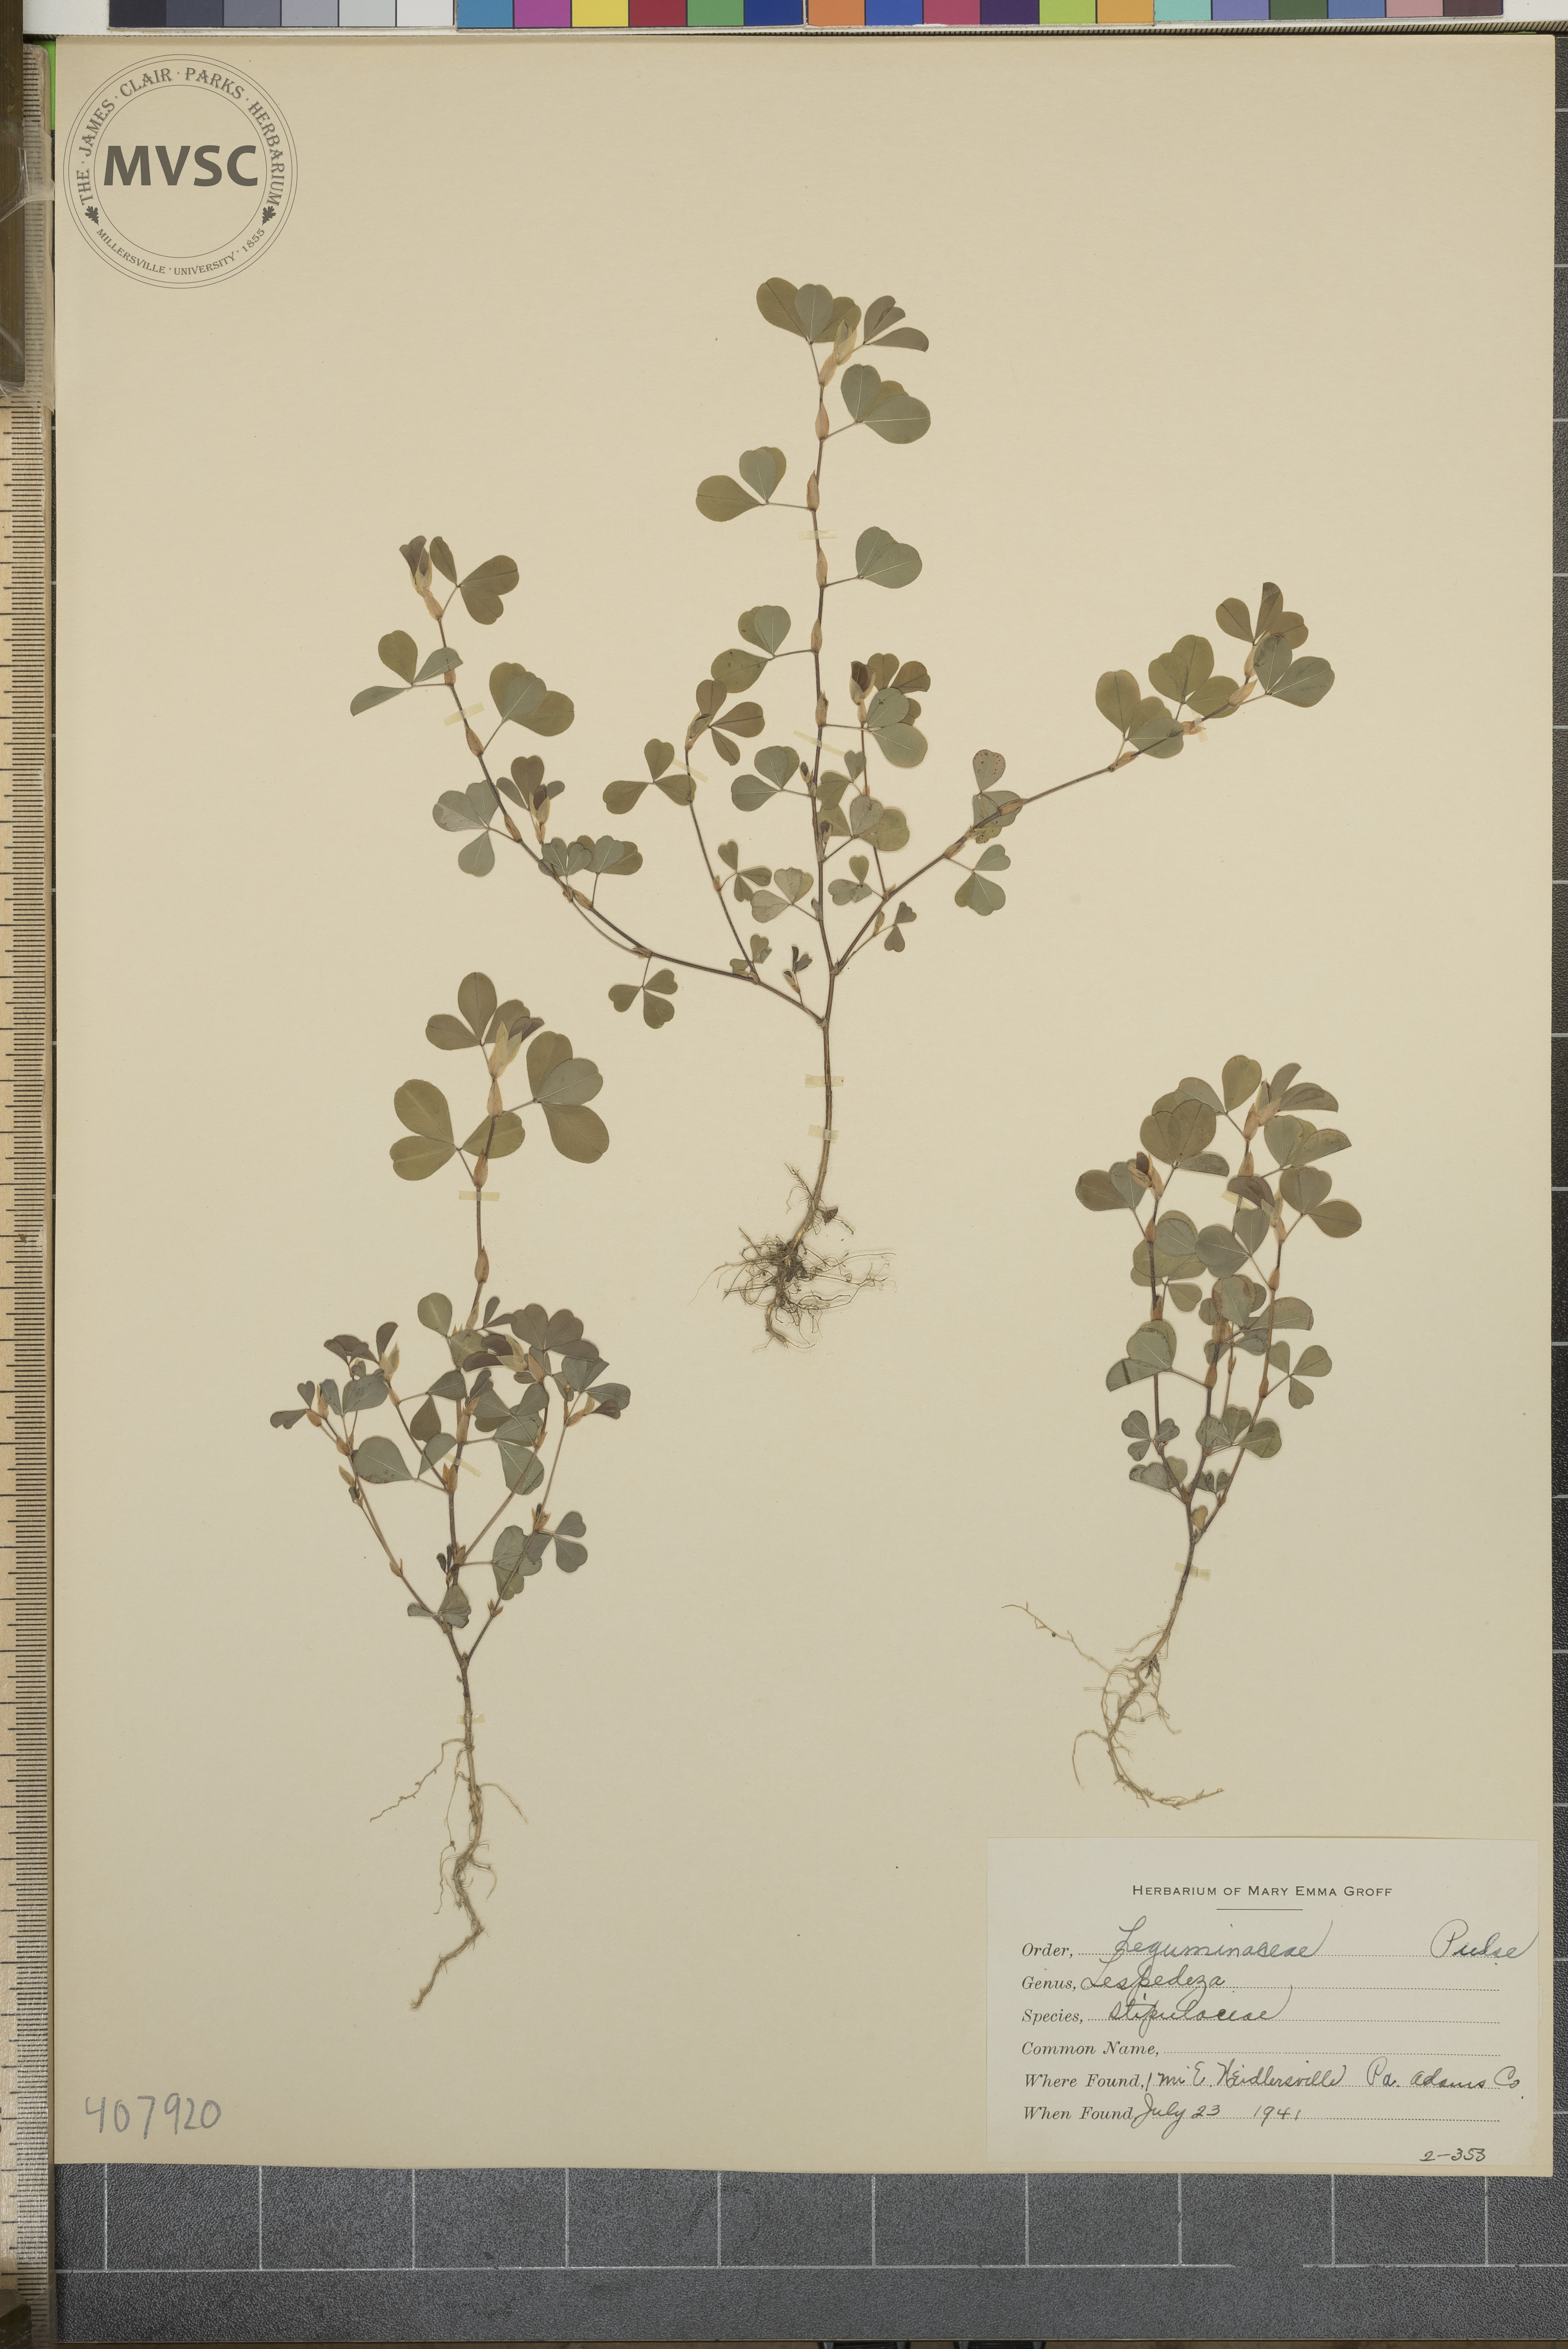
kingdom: Plantae
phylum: Tracheophyta
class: Magnoliopsida
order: Fabales
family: Fabaceae
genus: Kummerowia
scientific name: Kummerowia stipulacea
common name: Korean clover
